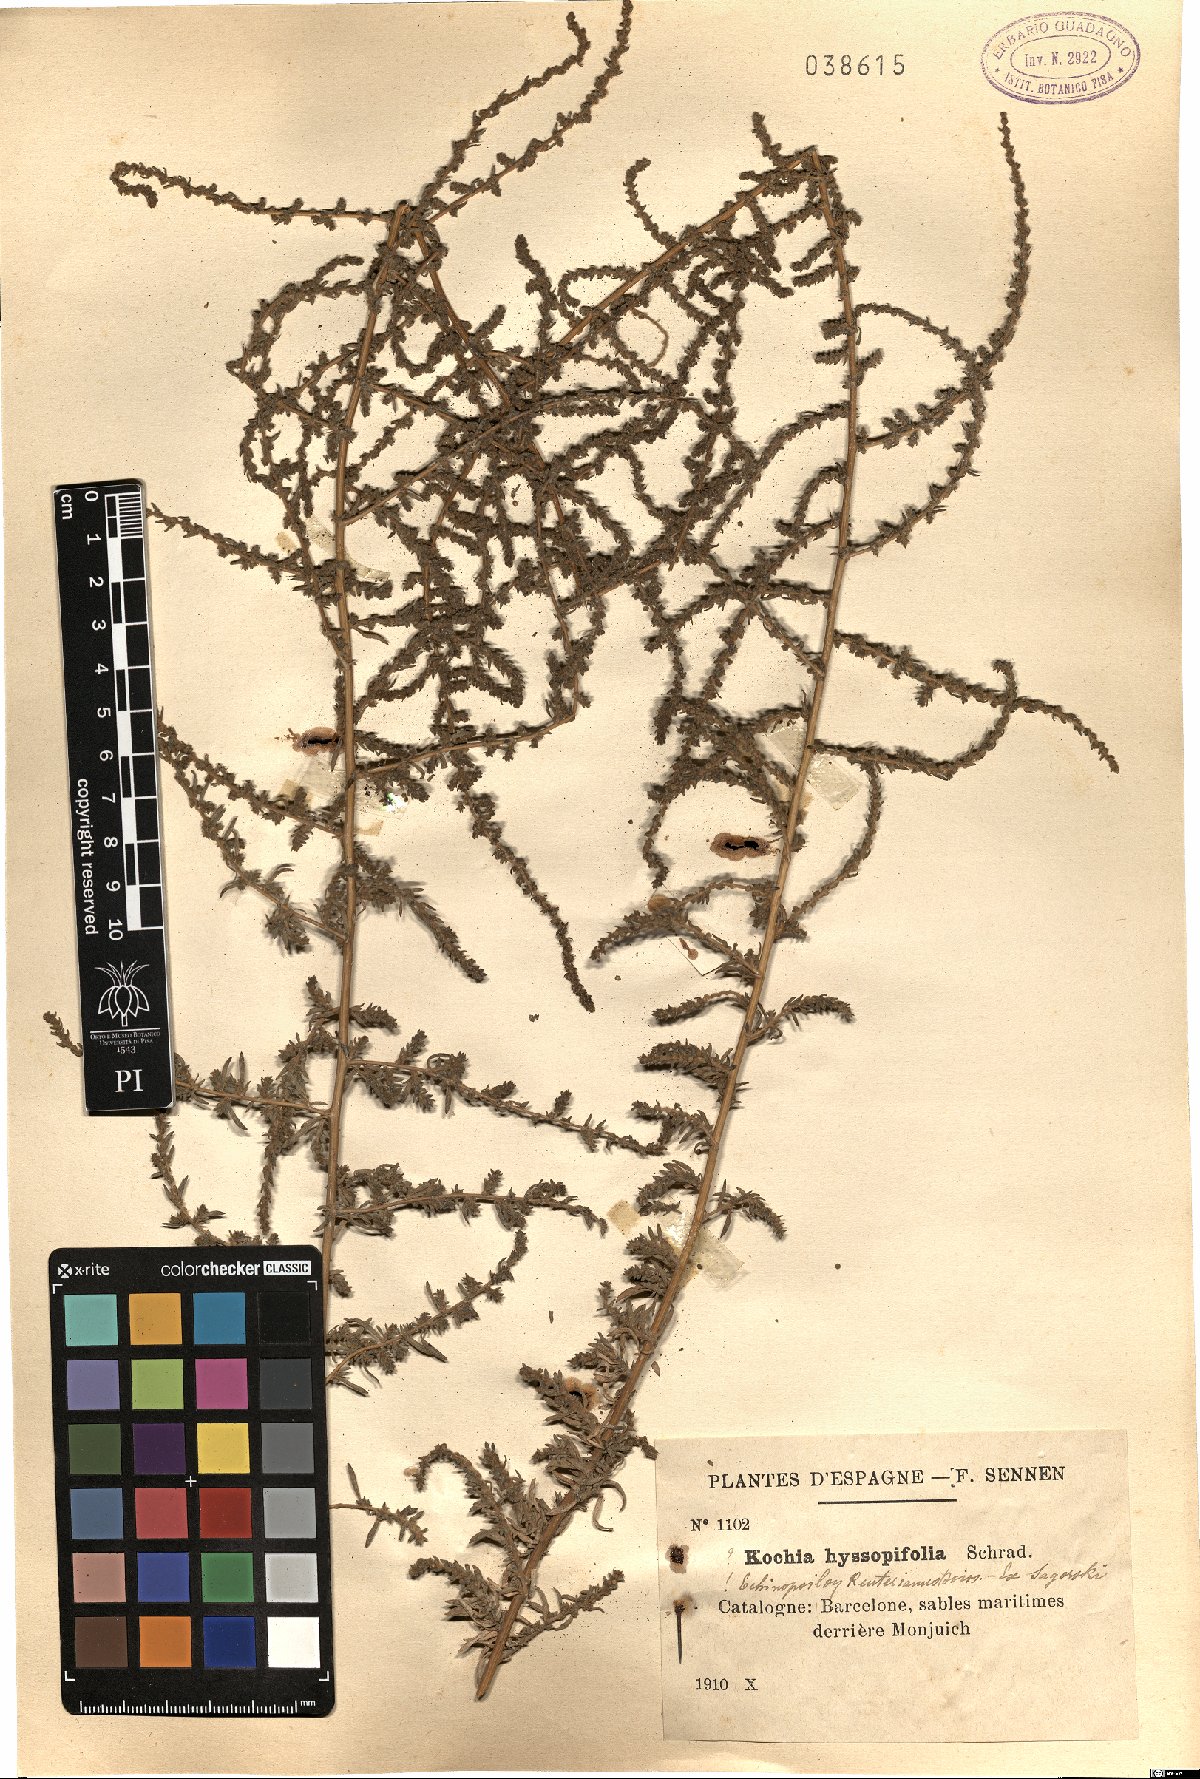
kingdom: Plantae
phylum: Tracheophyta
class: Magnoliopsida
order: Caryophyllales
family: Amaranthaceae
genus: Bassia
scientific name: Bassia hyssopifolia
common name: Fivehorn smotherweed
